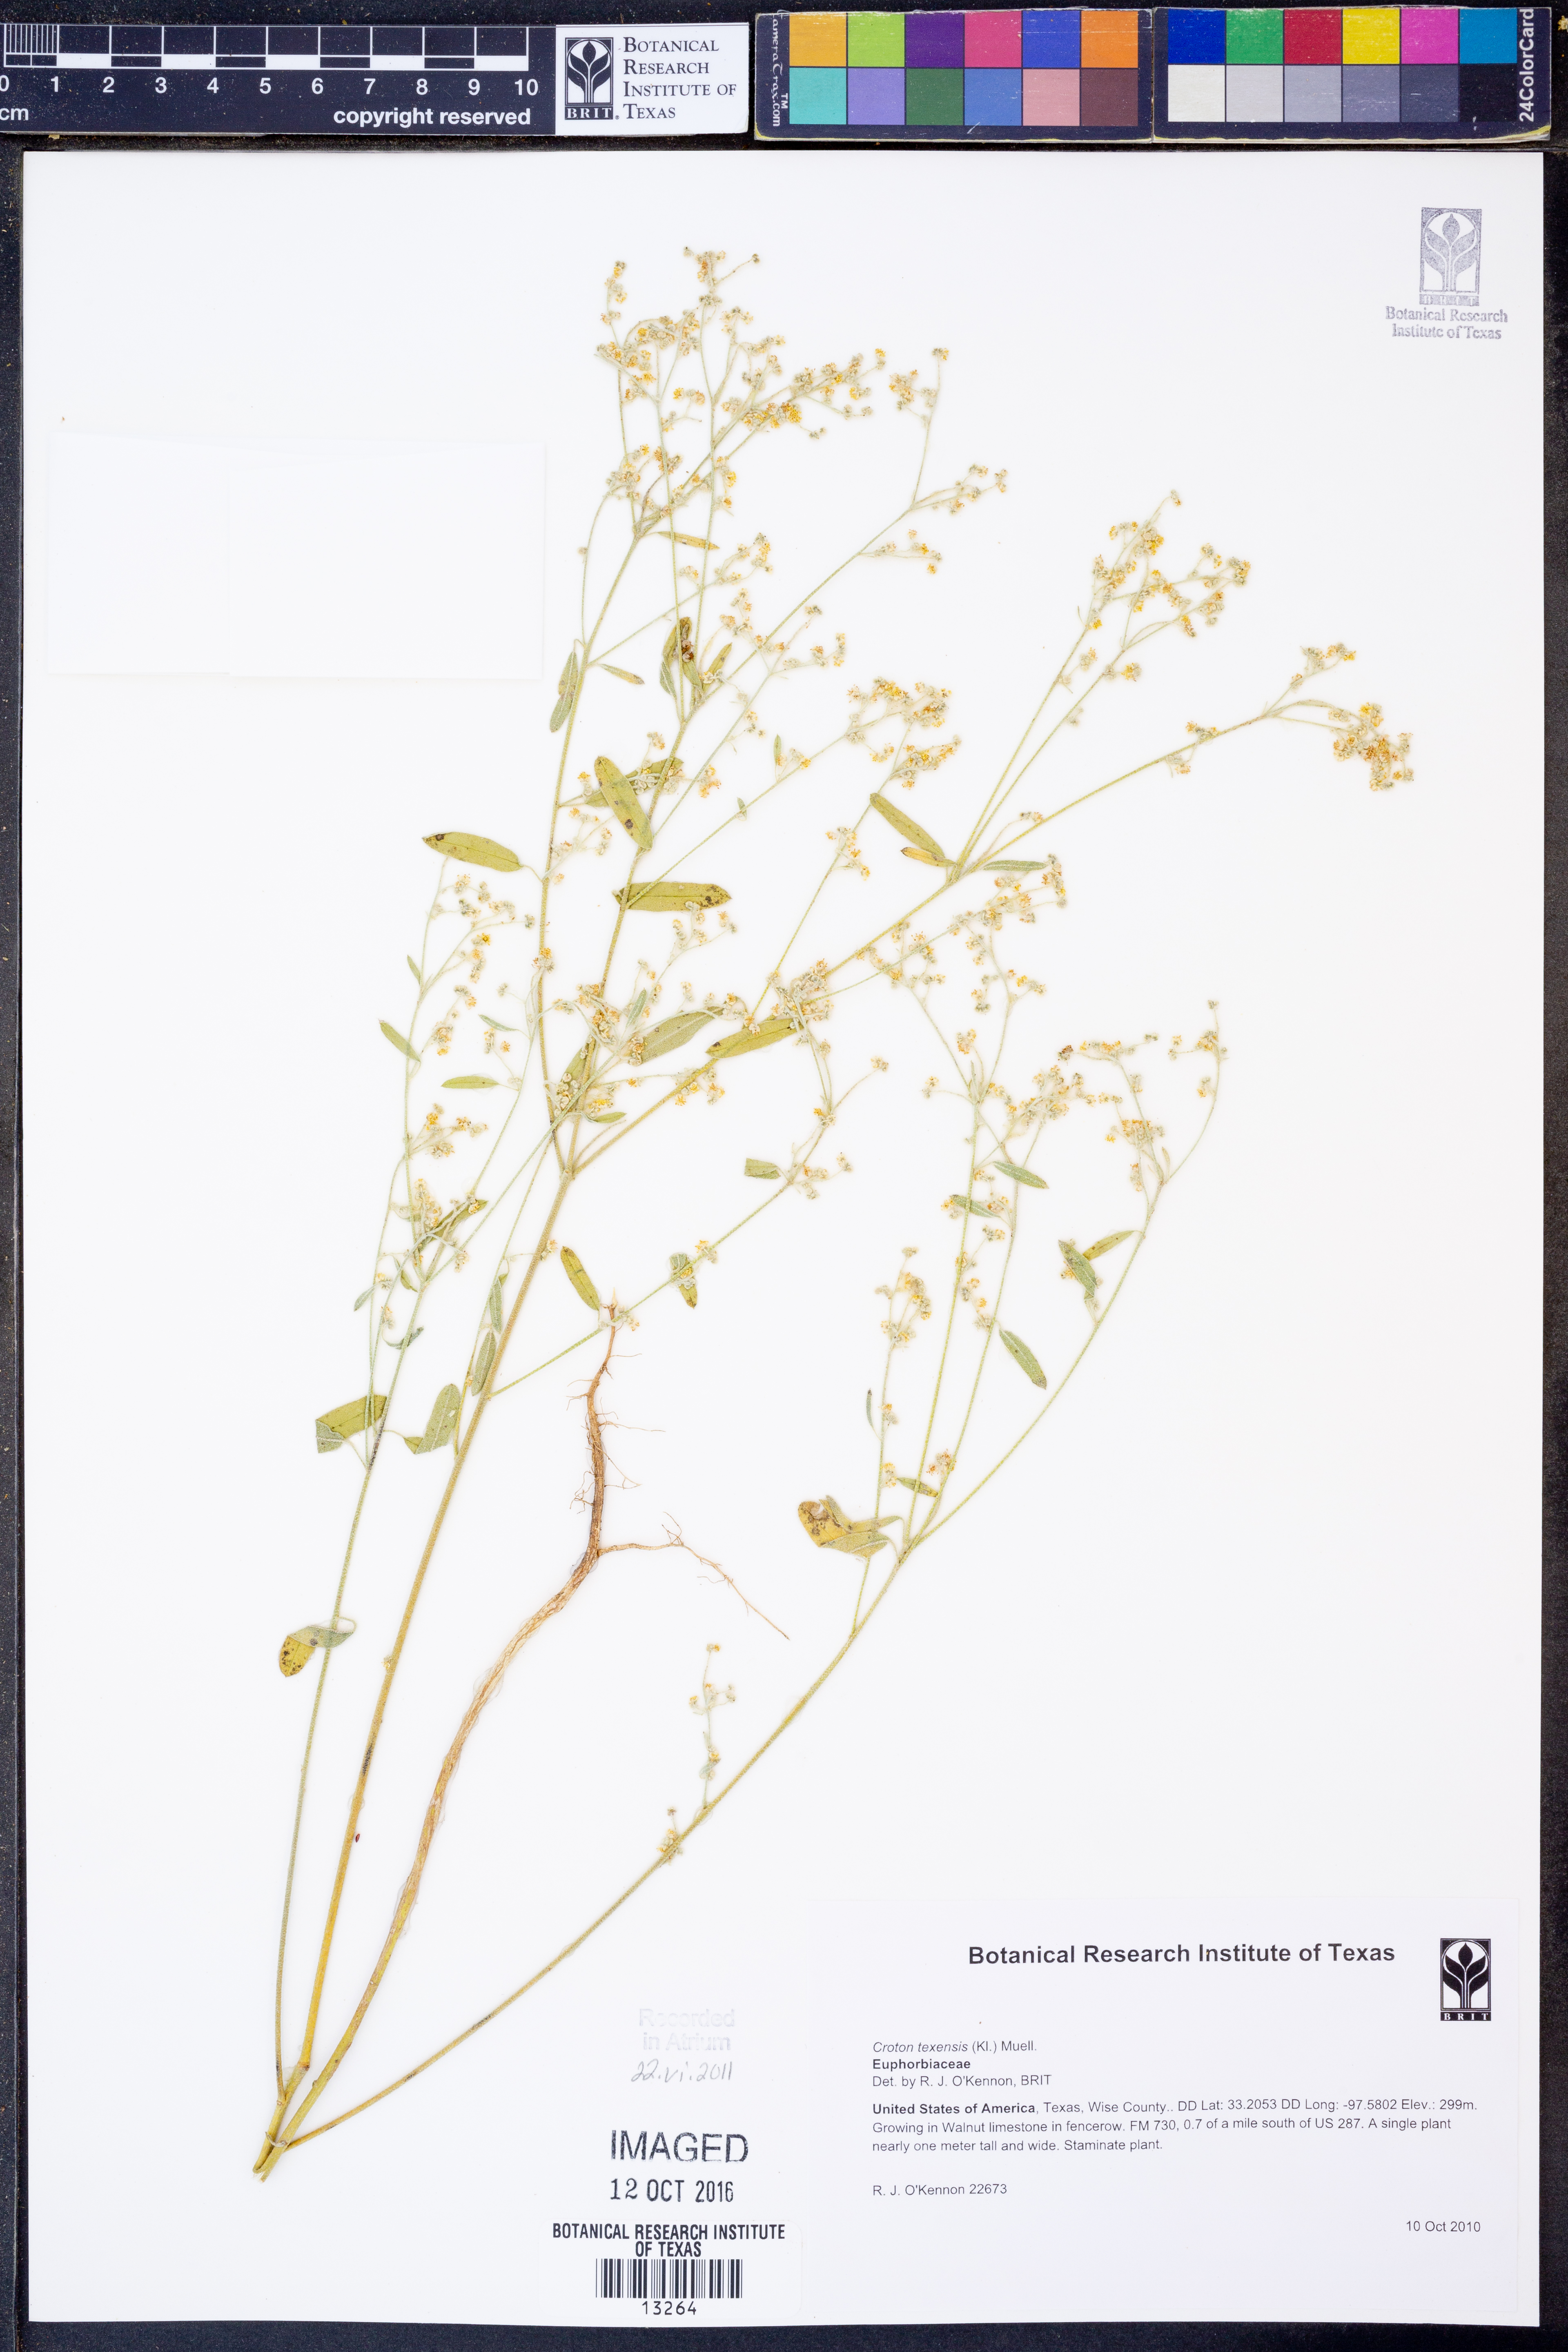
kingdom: Plantae
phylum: Tracheophyta
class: Magnoliopsida
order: Malpighiales
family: Euphorbiaceae
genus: Croton
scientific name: Croton texensis
